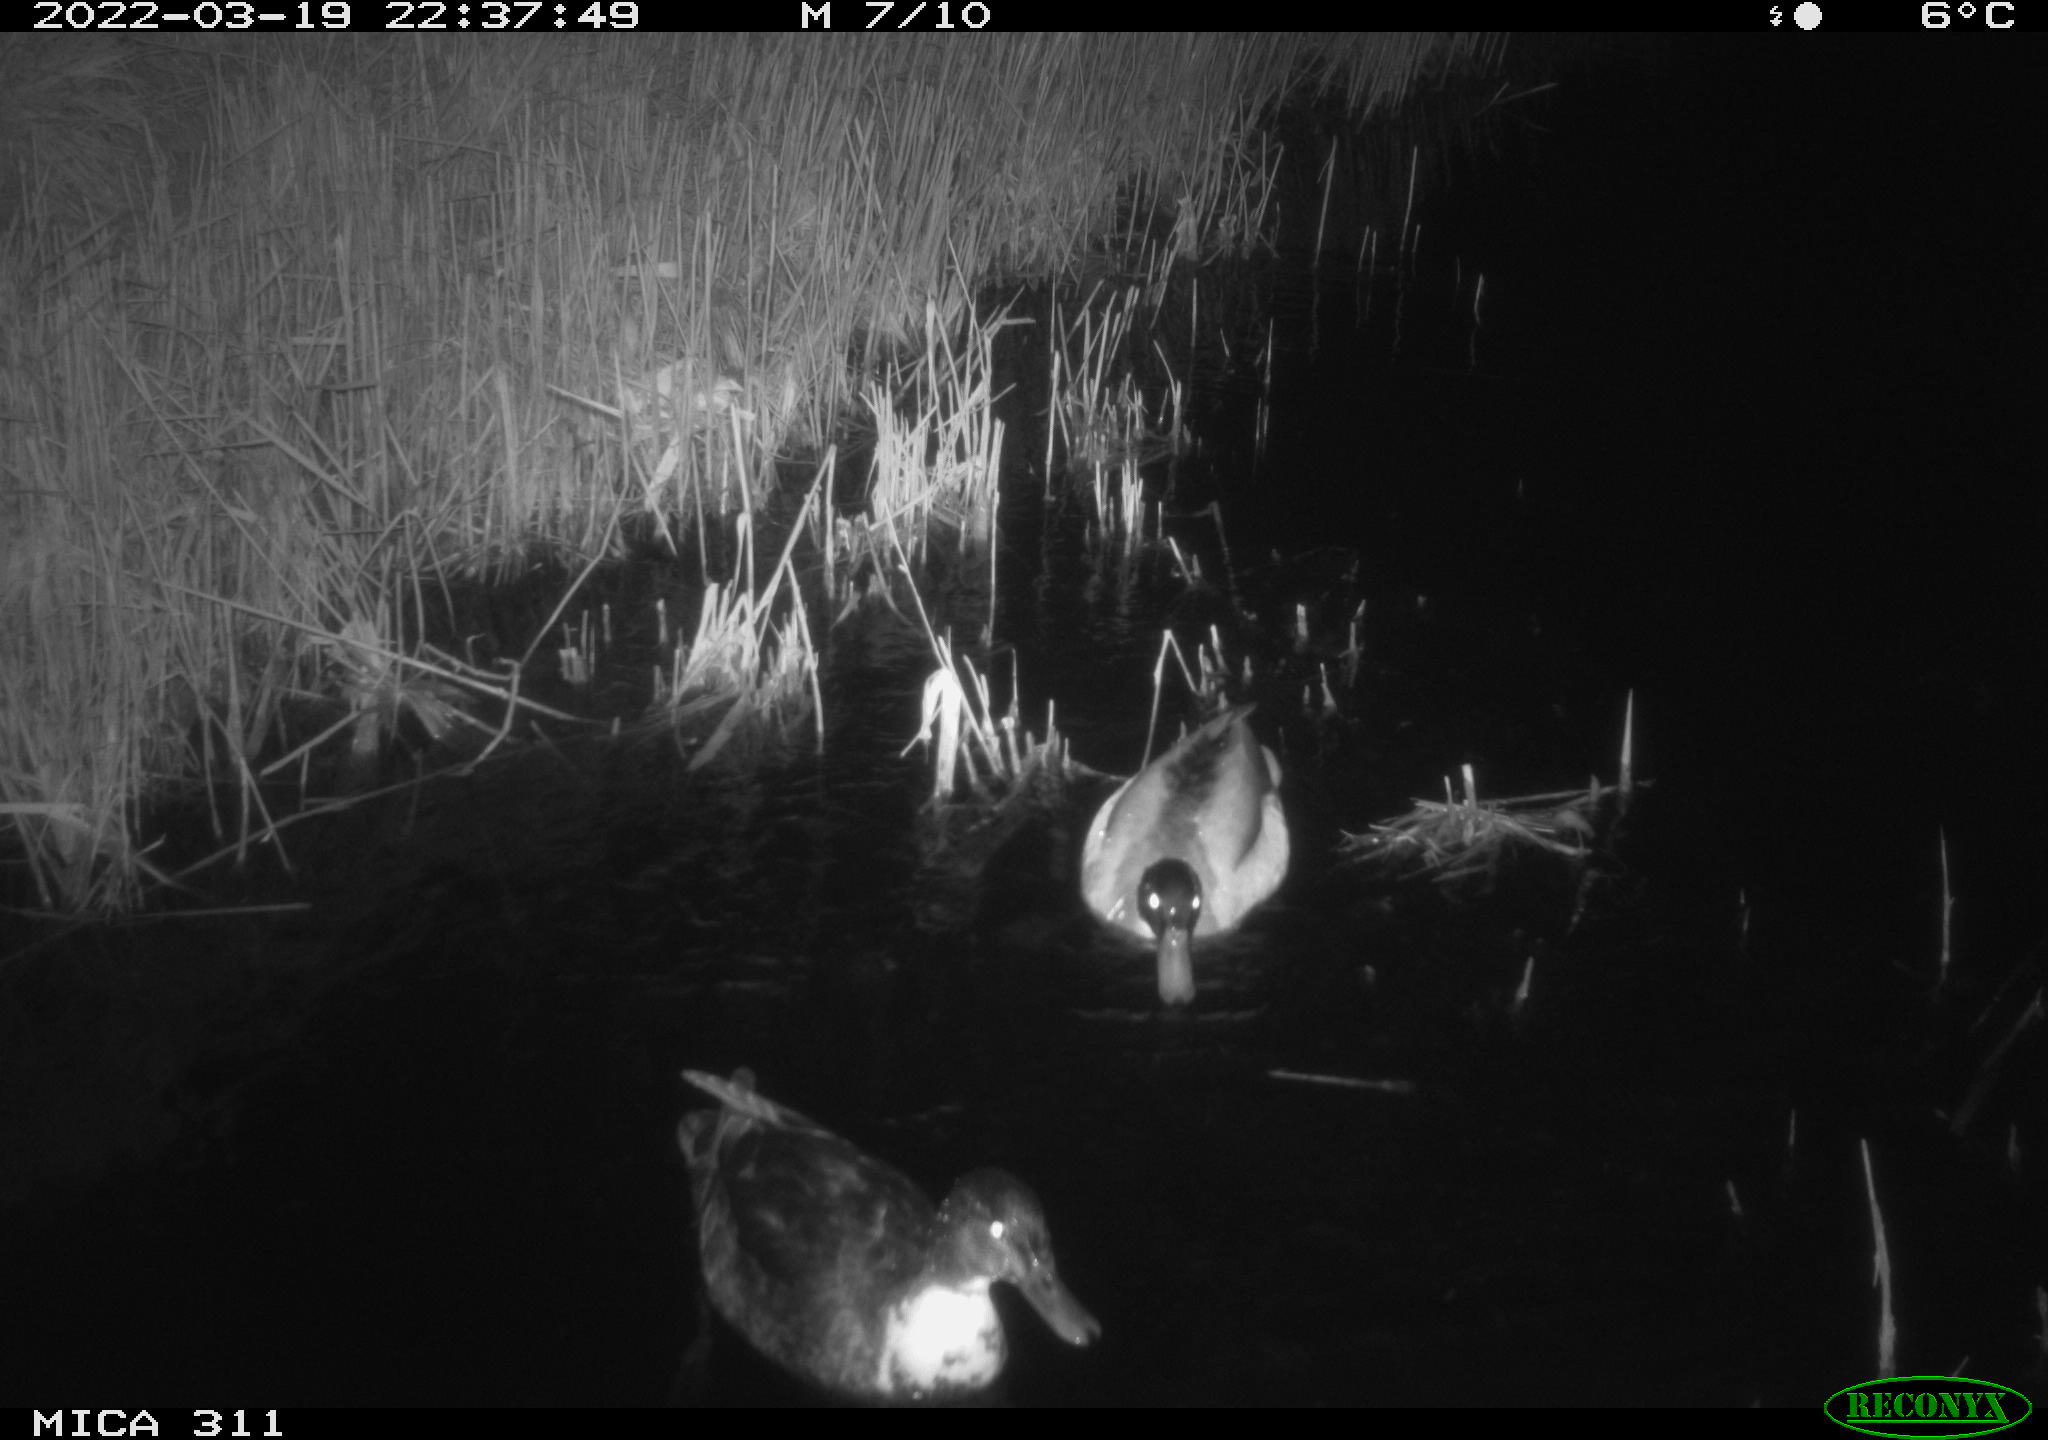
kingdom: Animalia
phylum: Chordata
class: Aves
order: Anseriformes
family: Anatidae
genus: Anas
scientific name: Anas
